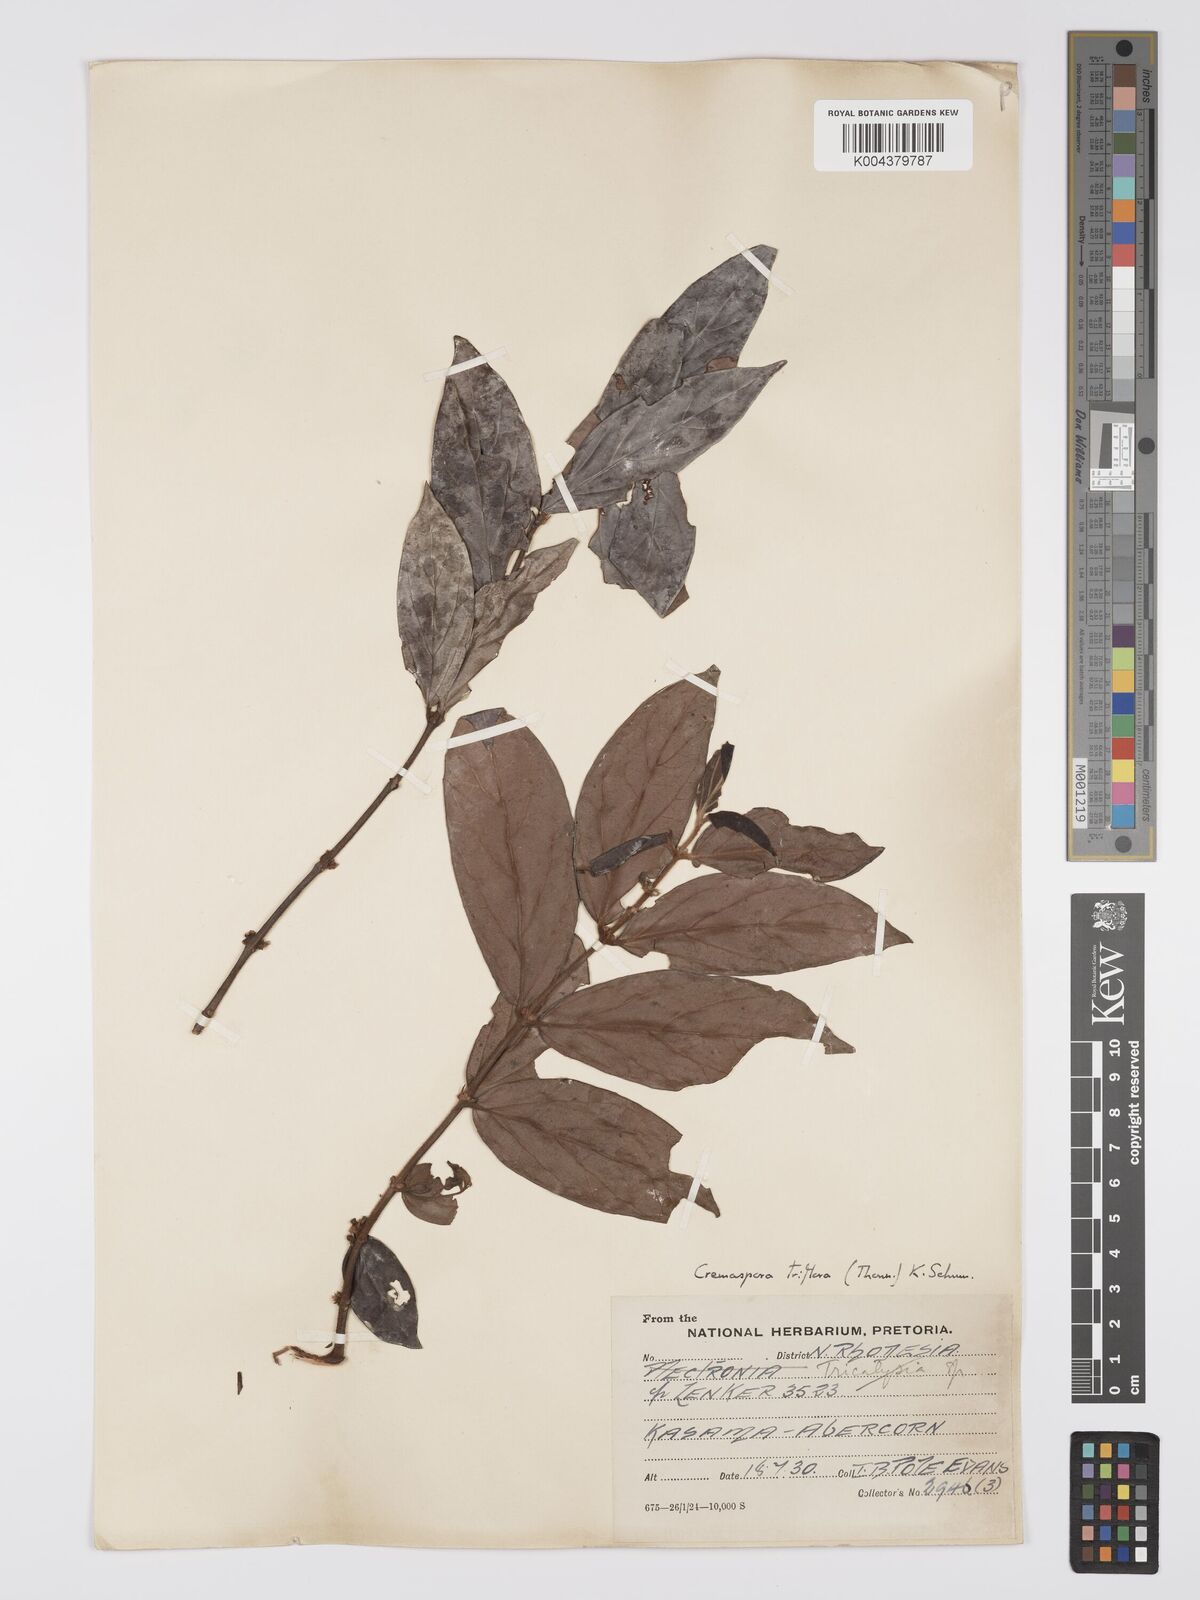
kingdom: Plantae
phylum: Tracheophyta
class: Magnoliopsida
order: Gentianales
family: Rubiaceae
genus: Cremaspora
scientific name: Cremaspora triflora
